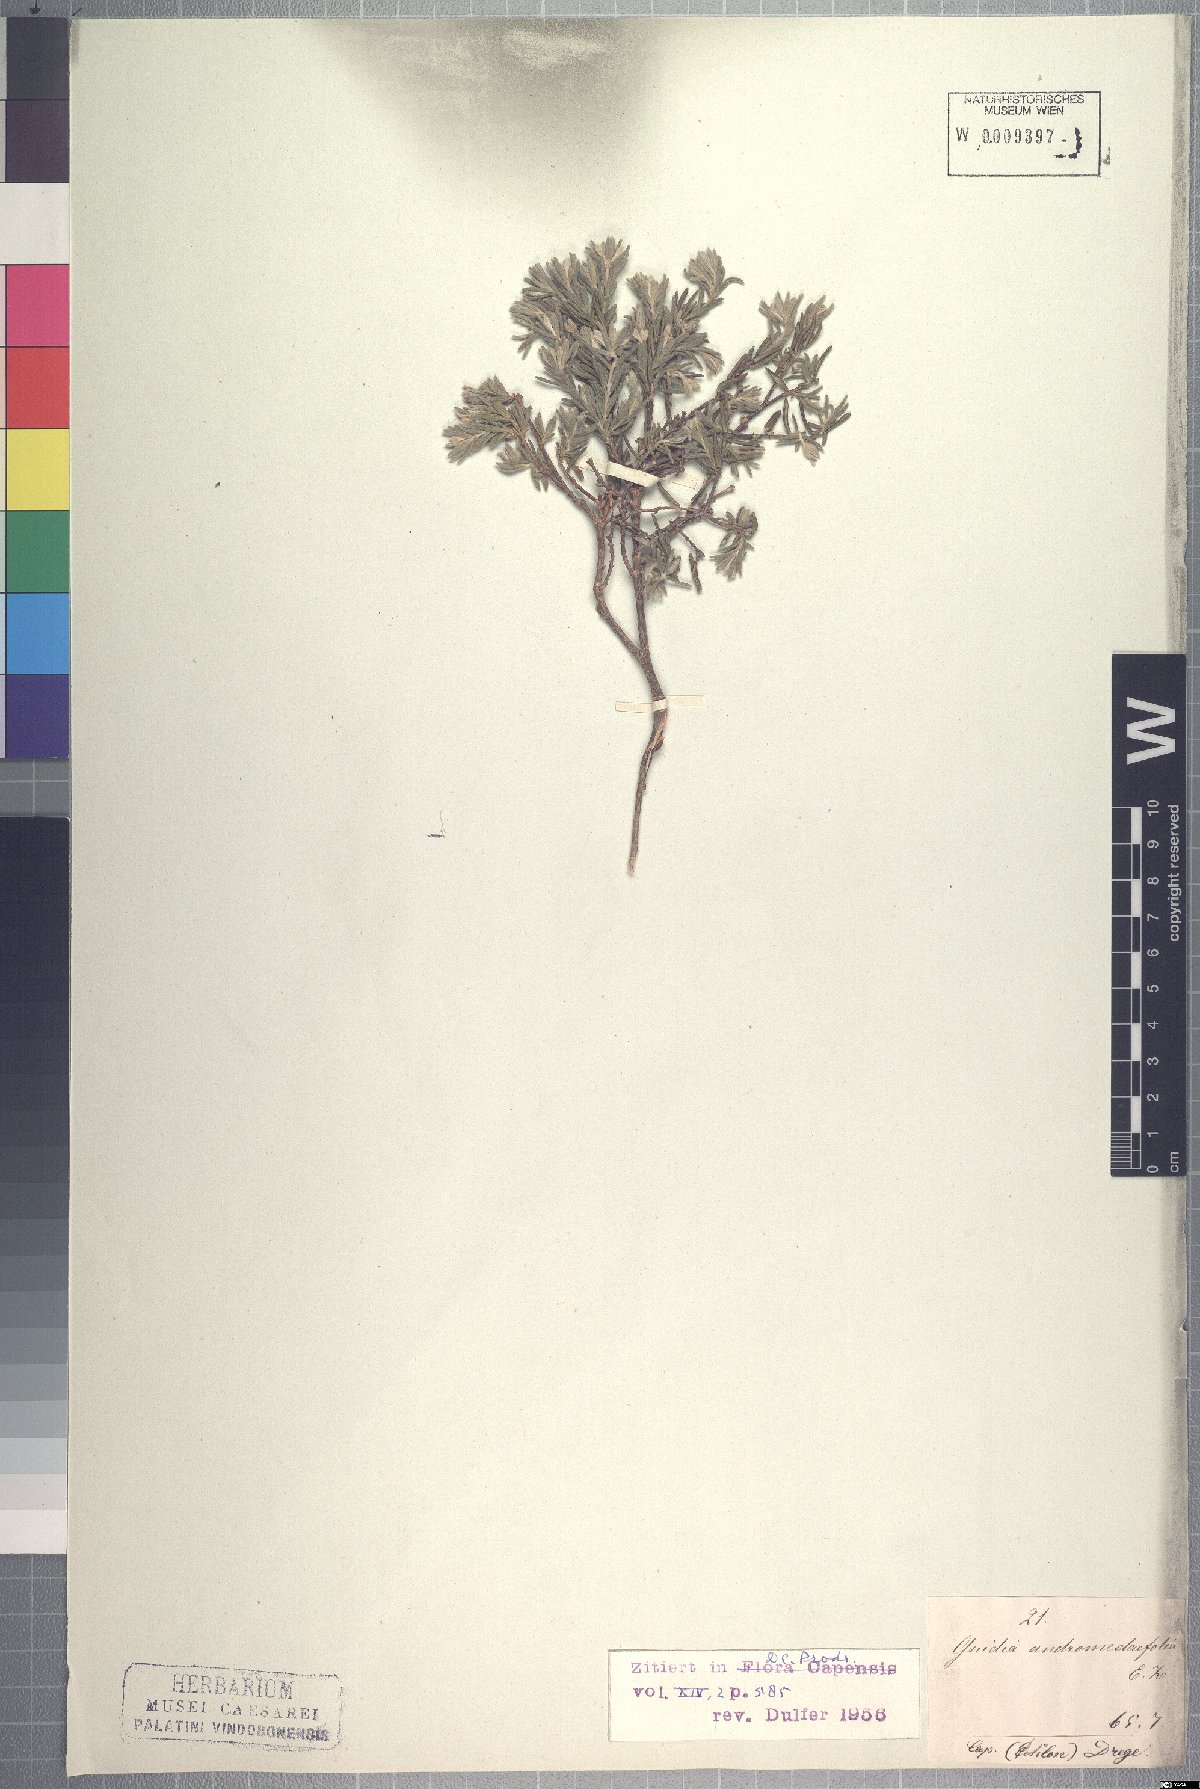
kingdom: Plantae
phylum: Tracheophyta
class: Magnoliopsida
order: Malvales
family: Thymelaeaceae
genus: Gnidia
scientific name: Gnidia caniflora
